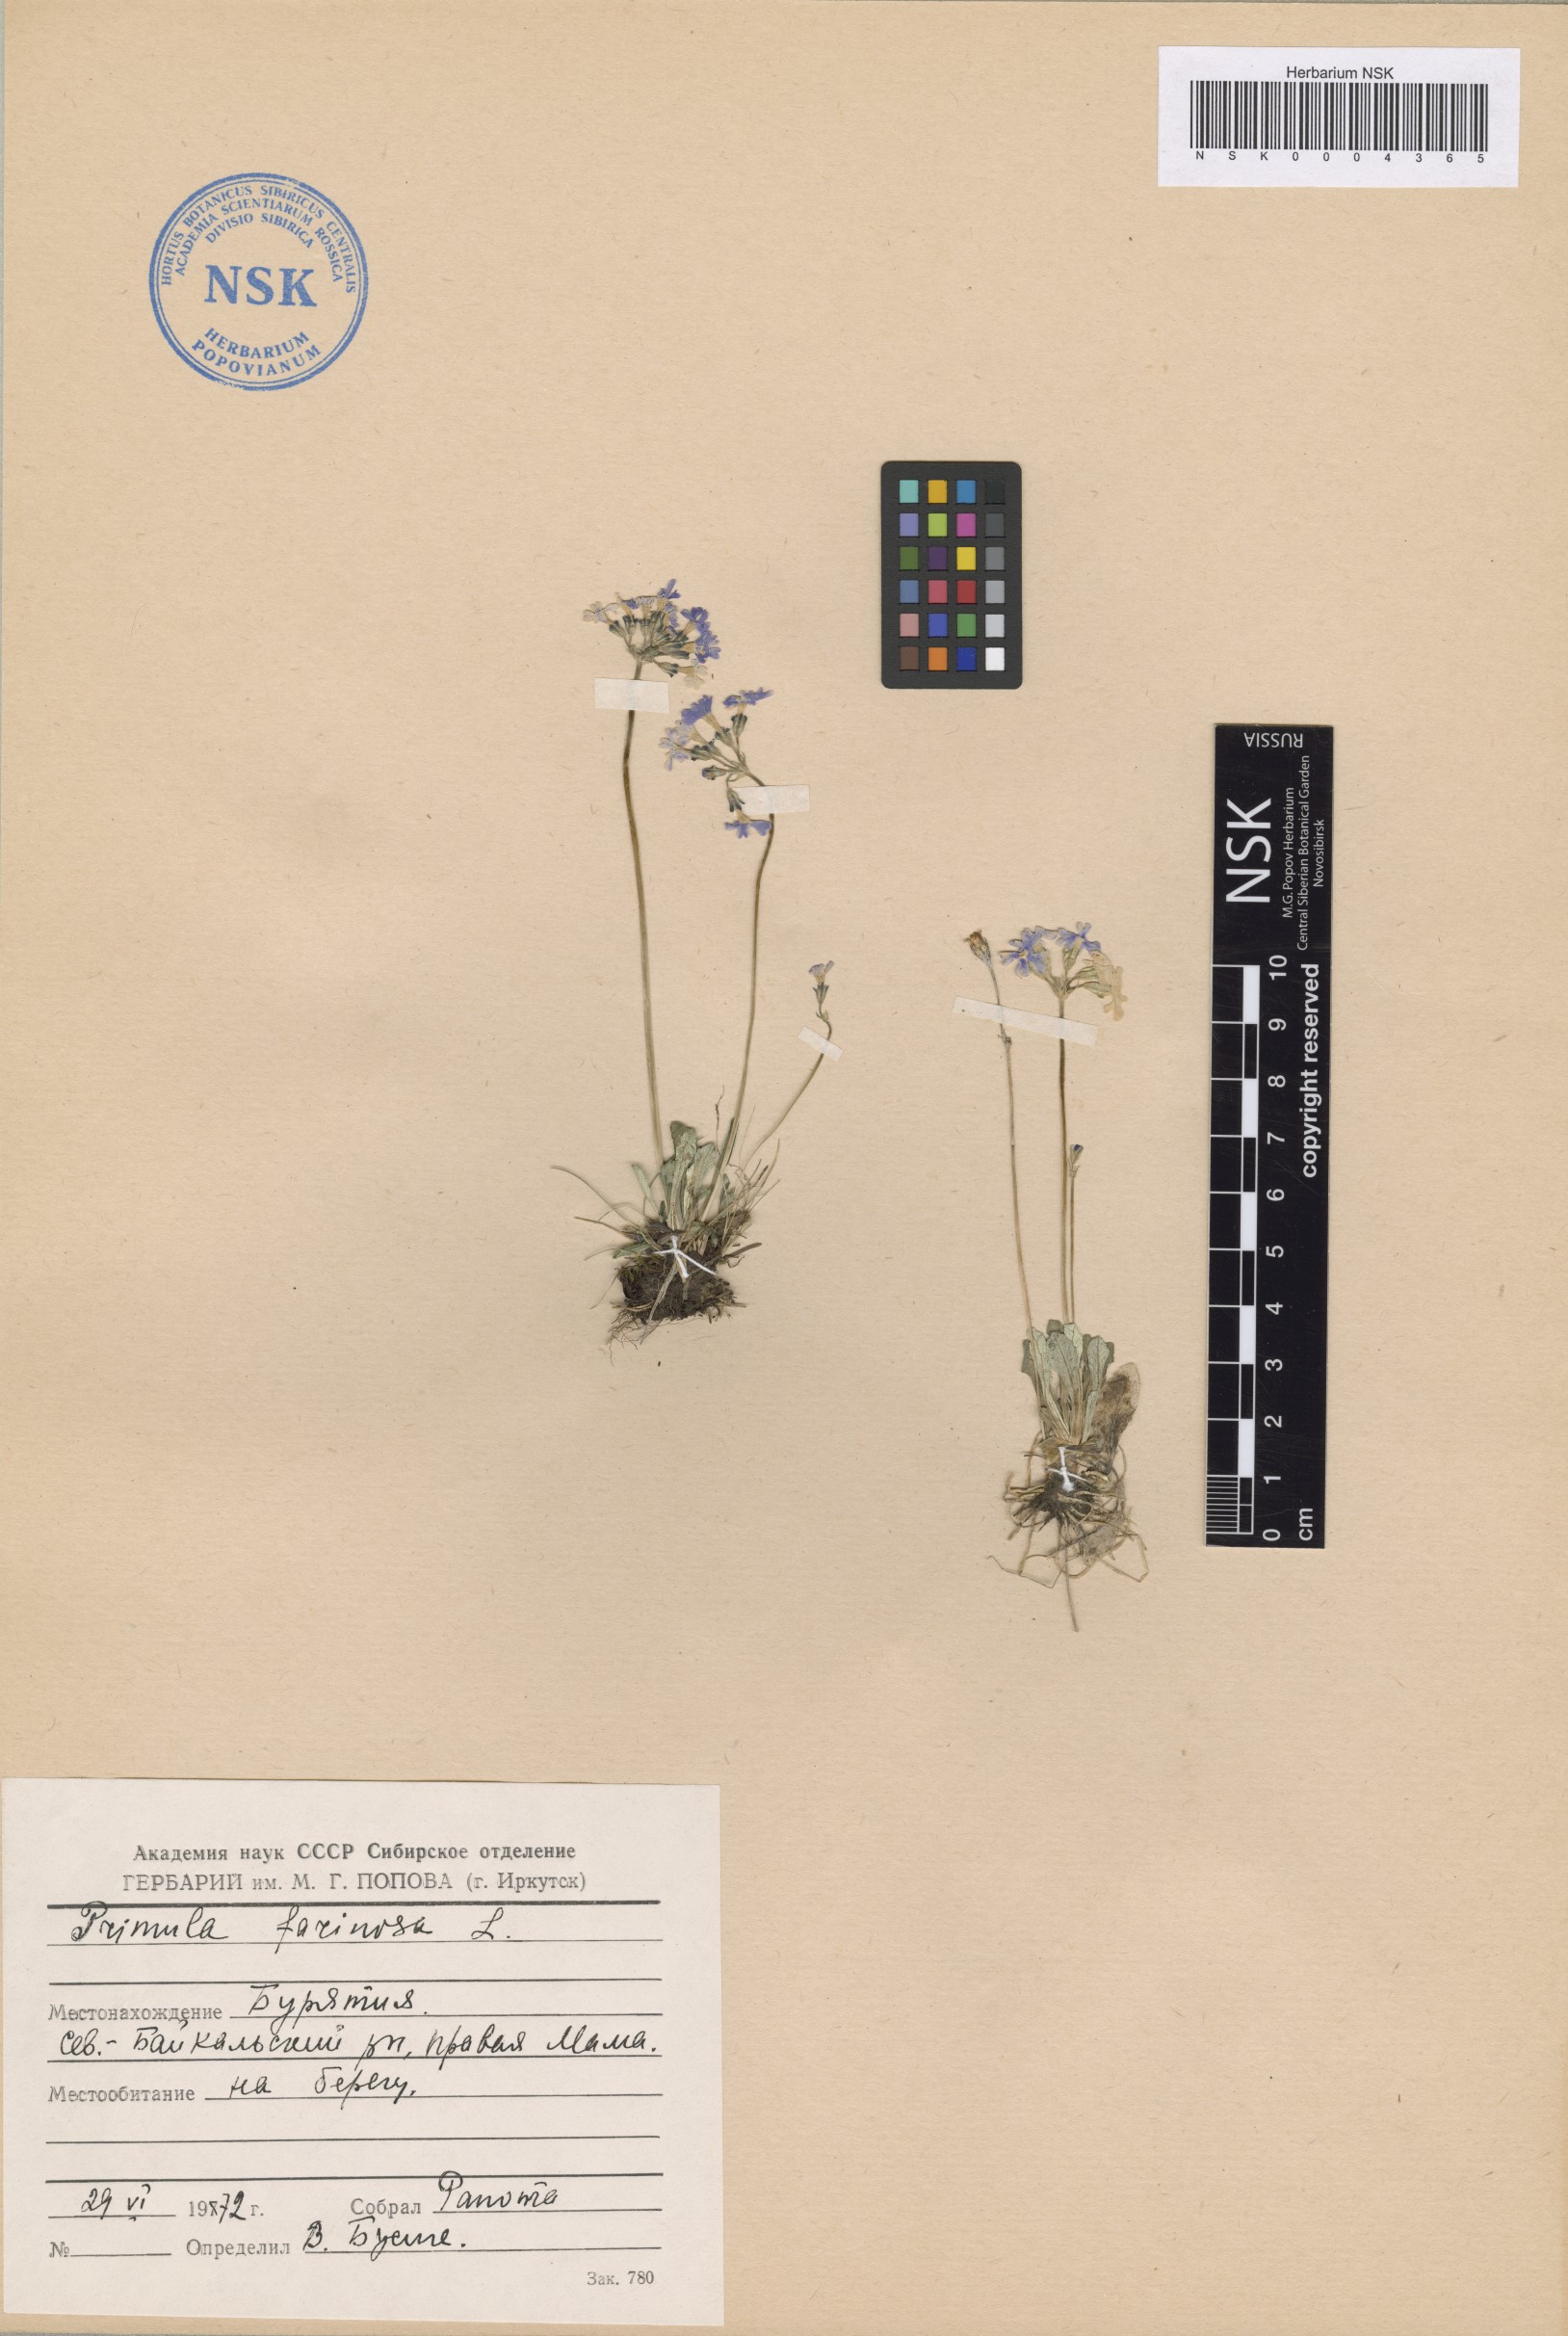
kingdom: Plantae
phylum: Tracheophyta
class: Magnoliopsida
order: Asterales
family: Asteraceae
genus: Taraxacum
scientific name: Taraxacum pseudonivale
